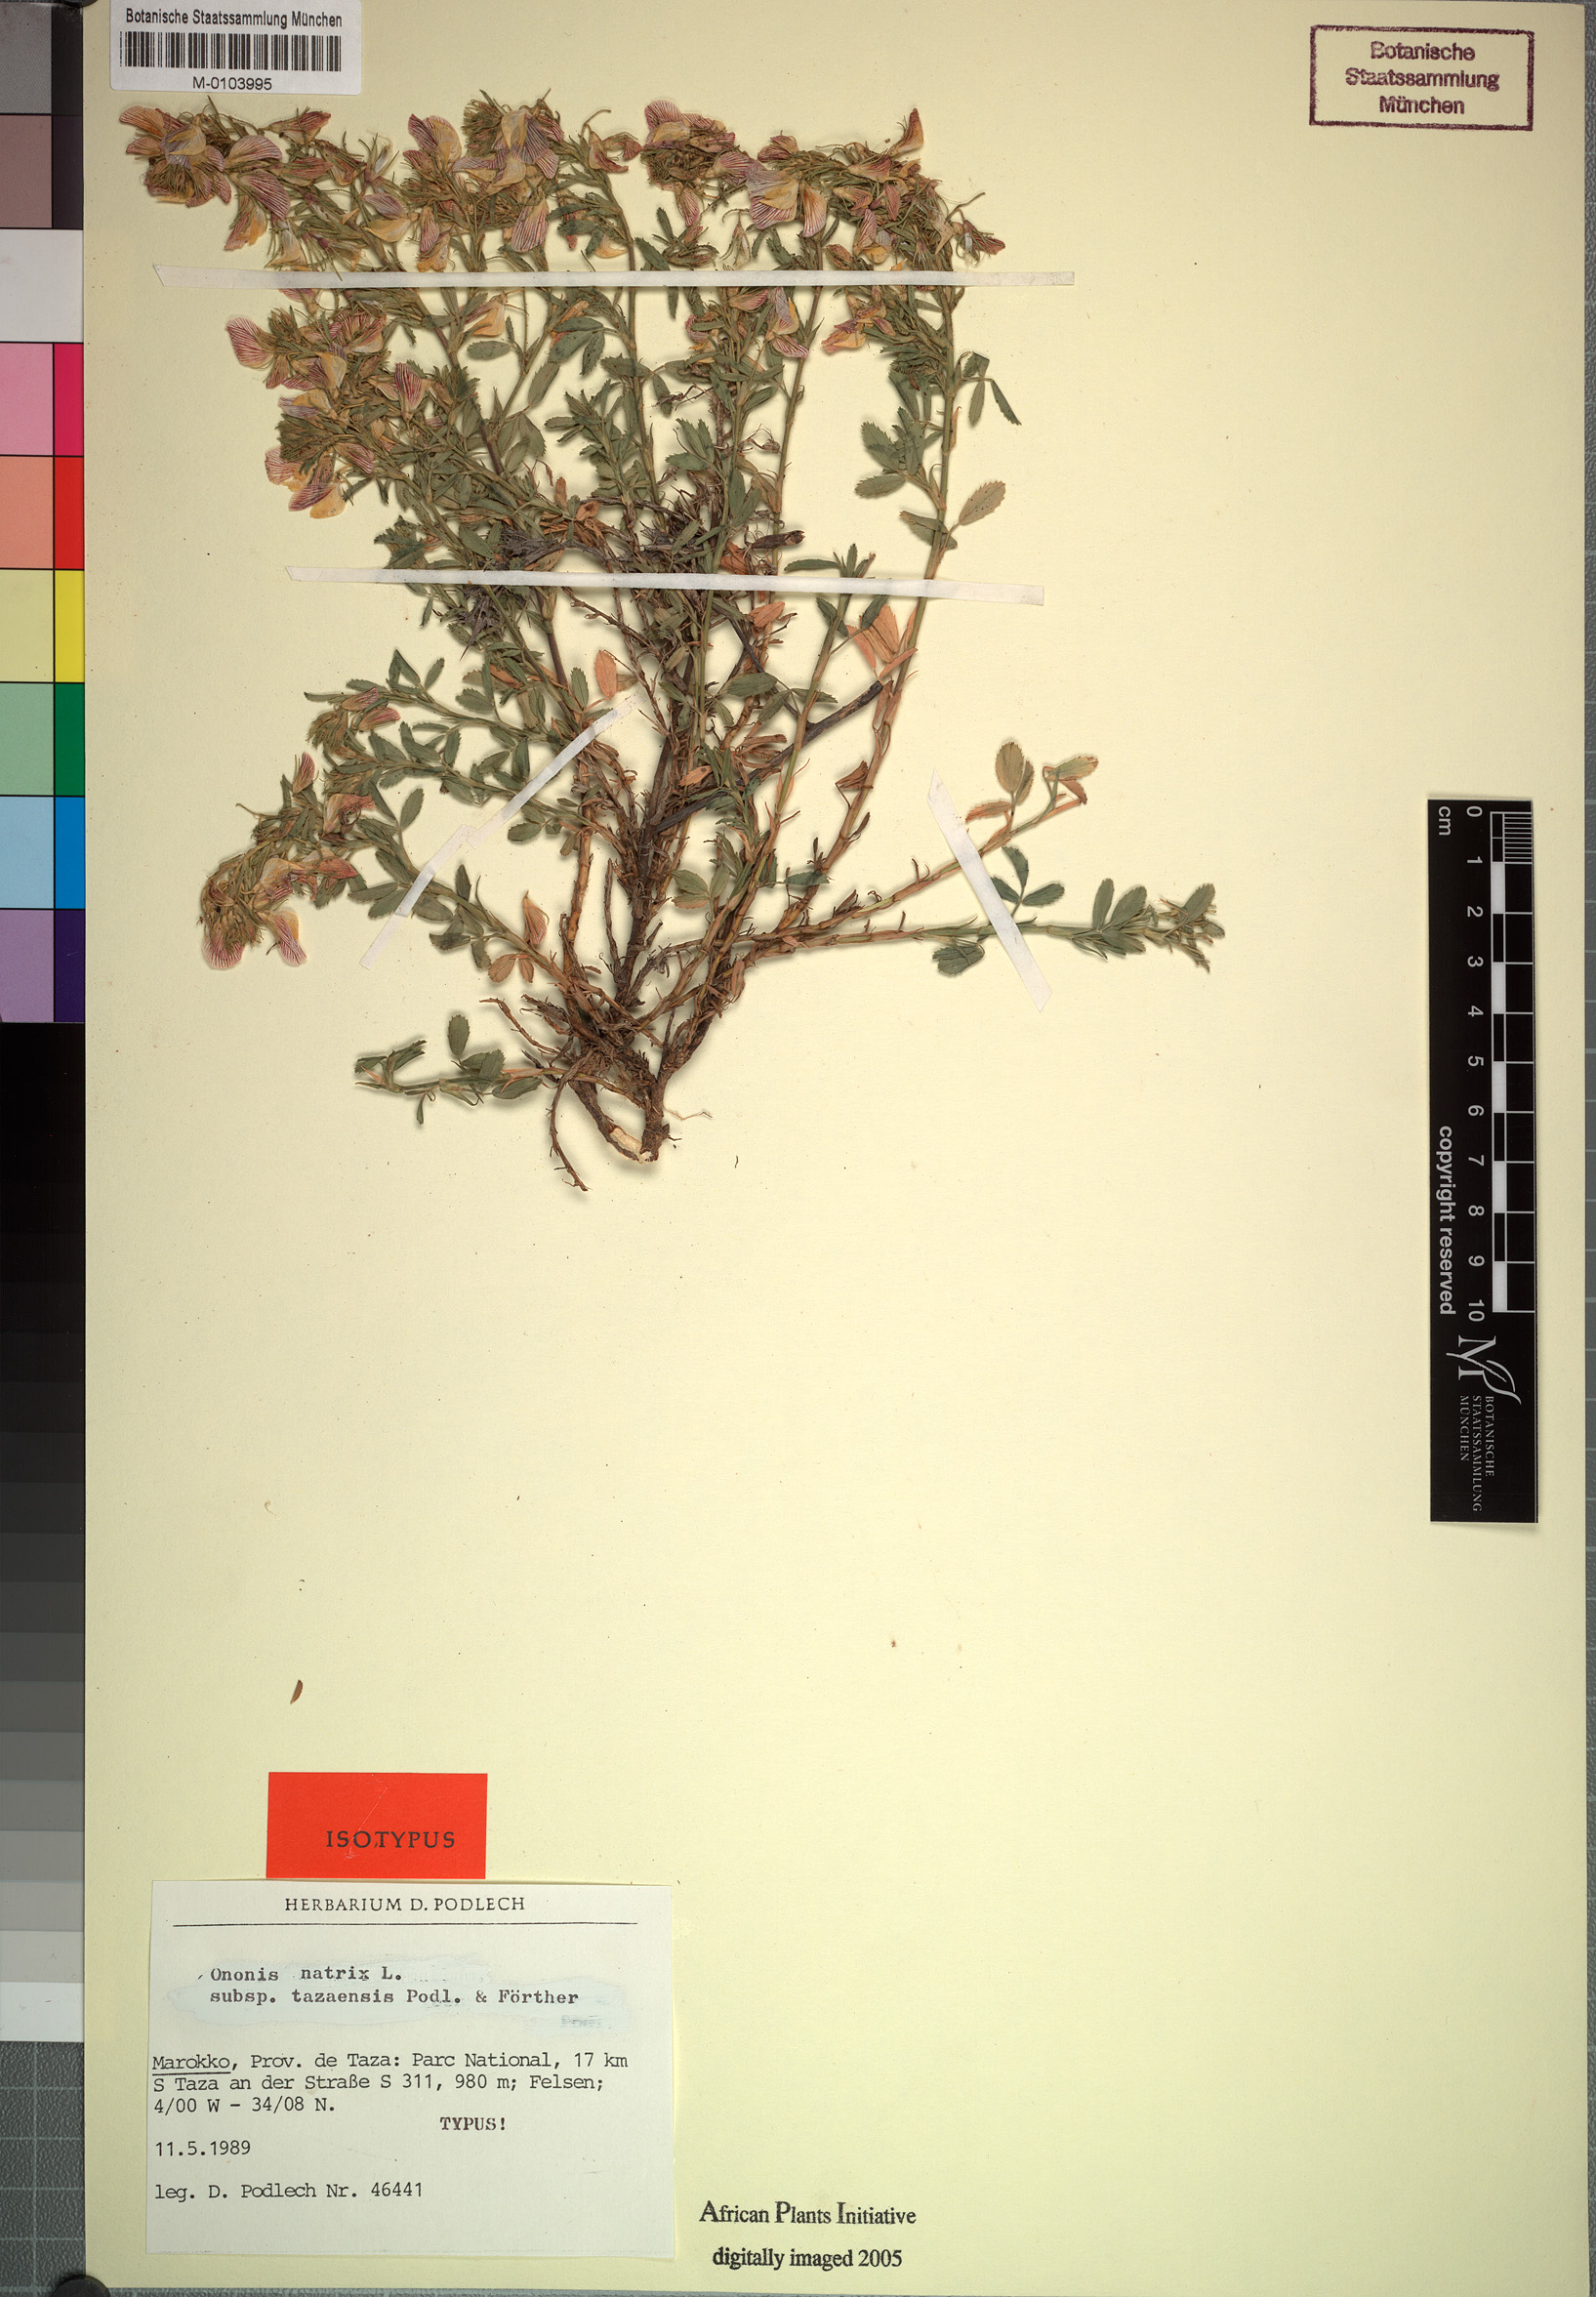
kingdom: Plantae
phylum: Tracheophyta
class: Magnoliopsida
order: Fabales
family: Fabaceae
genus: Ononis
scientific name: Ononis tazaensis
